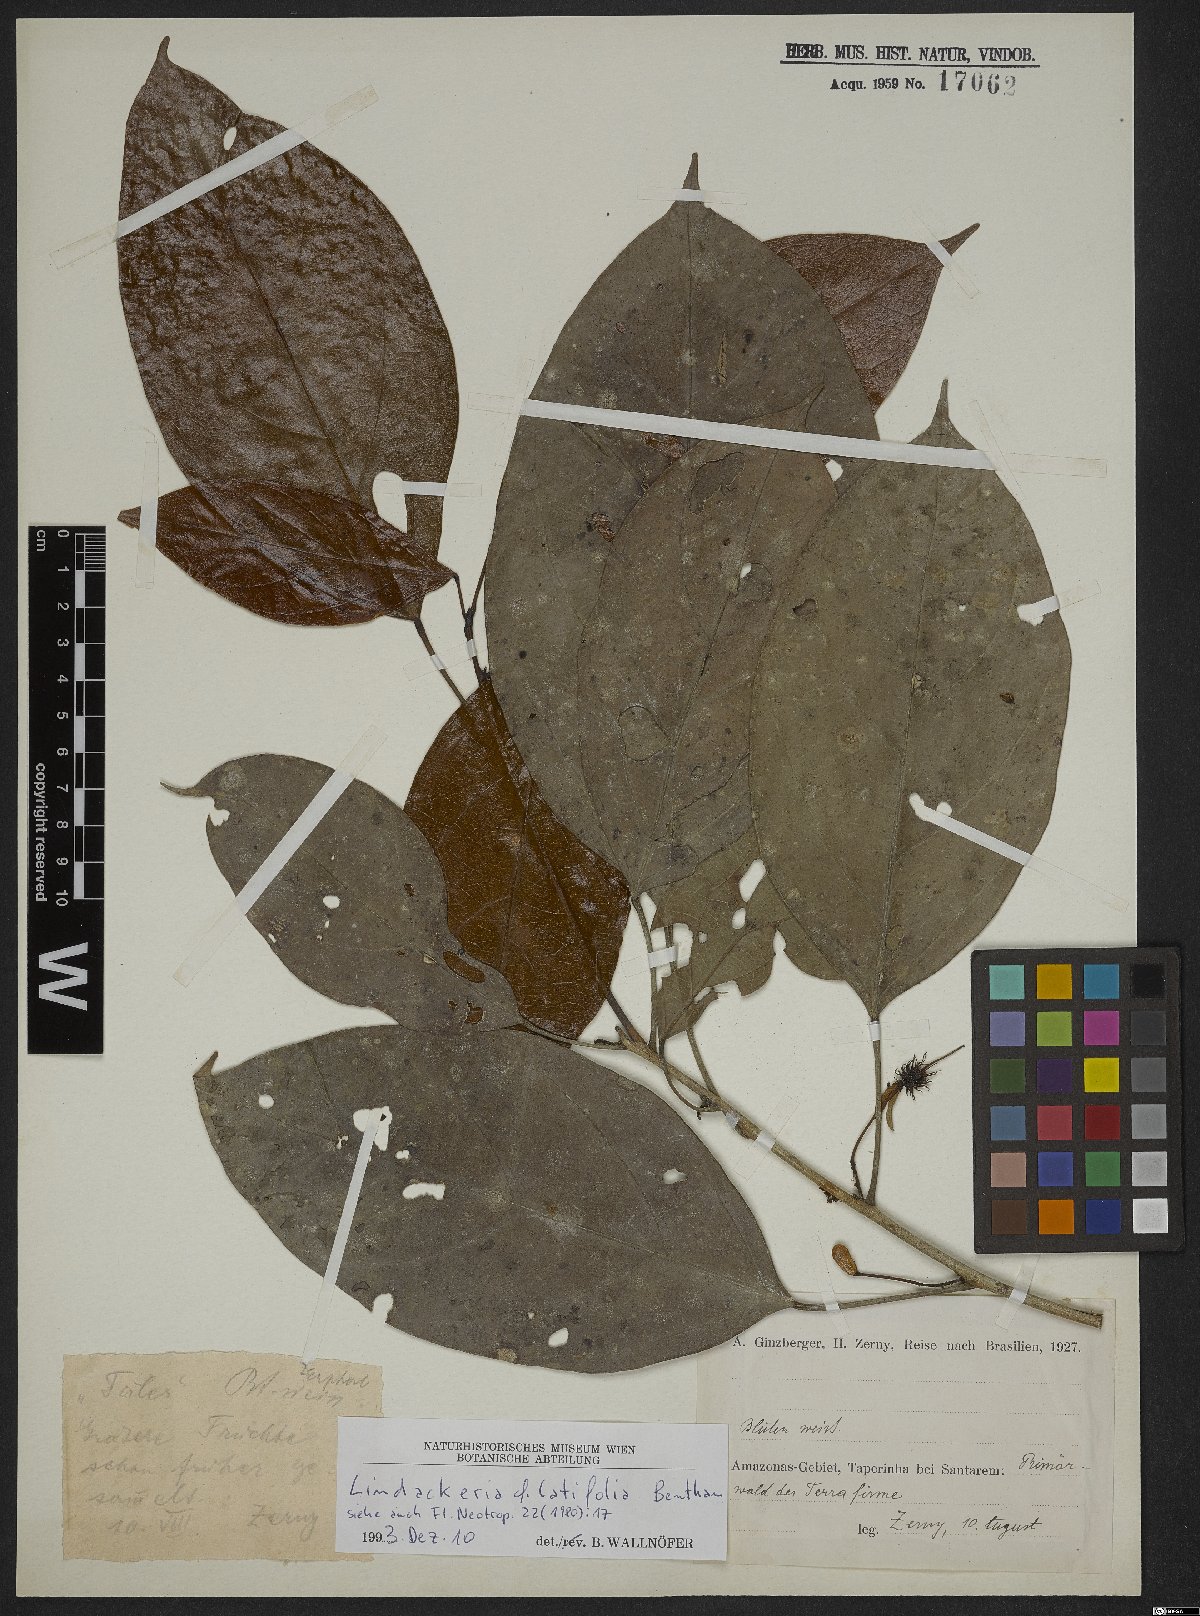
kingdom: Plantae
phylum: Tracheophyta
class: Magnoliopsida
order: Malpighiales
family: Achariaceae
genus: Lindackeria
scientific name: Lindackeria latifolia
